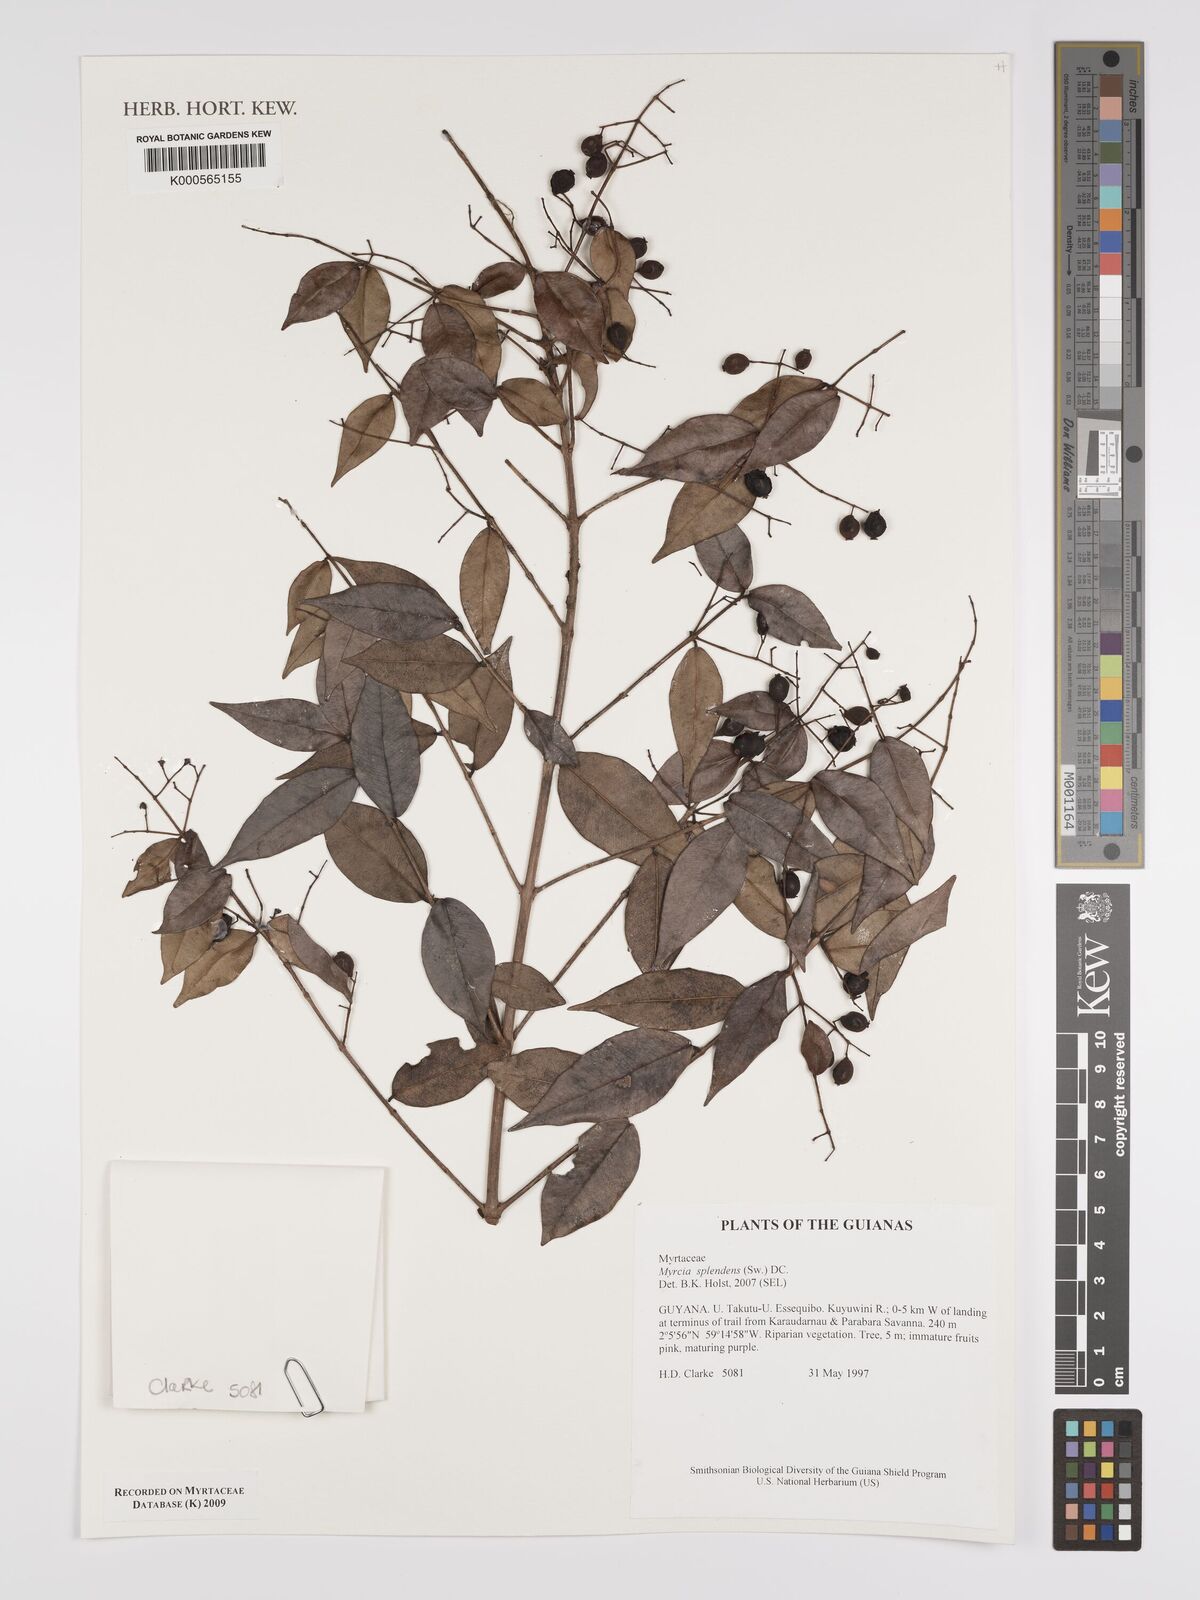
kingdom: Plantae
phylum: Tracheophyta
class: Magnoliopsida
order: Myrtales
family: Myrtaceae
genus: Myrcia
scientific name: Myrcia splendens
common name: Surinam cherry
